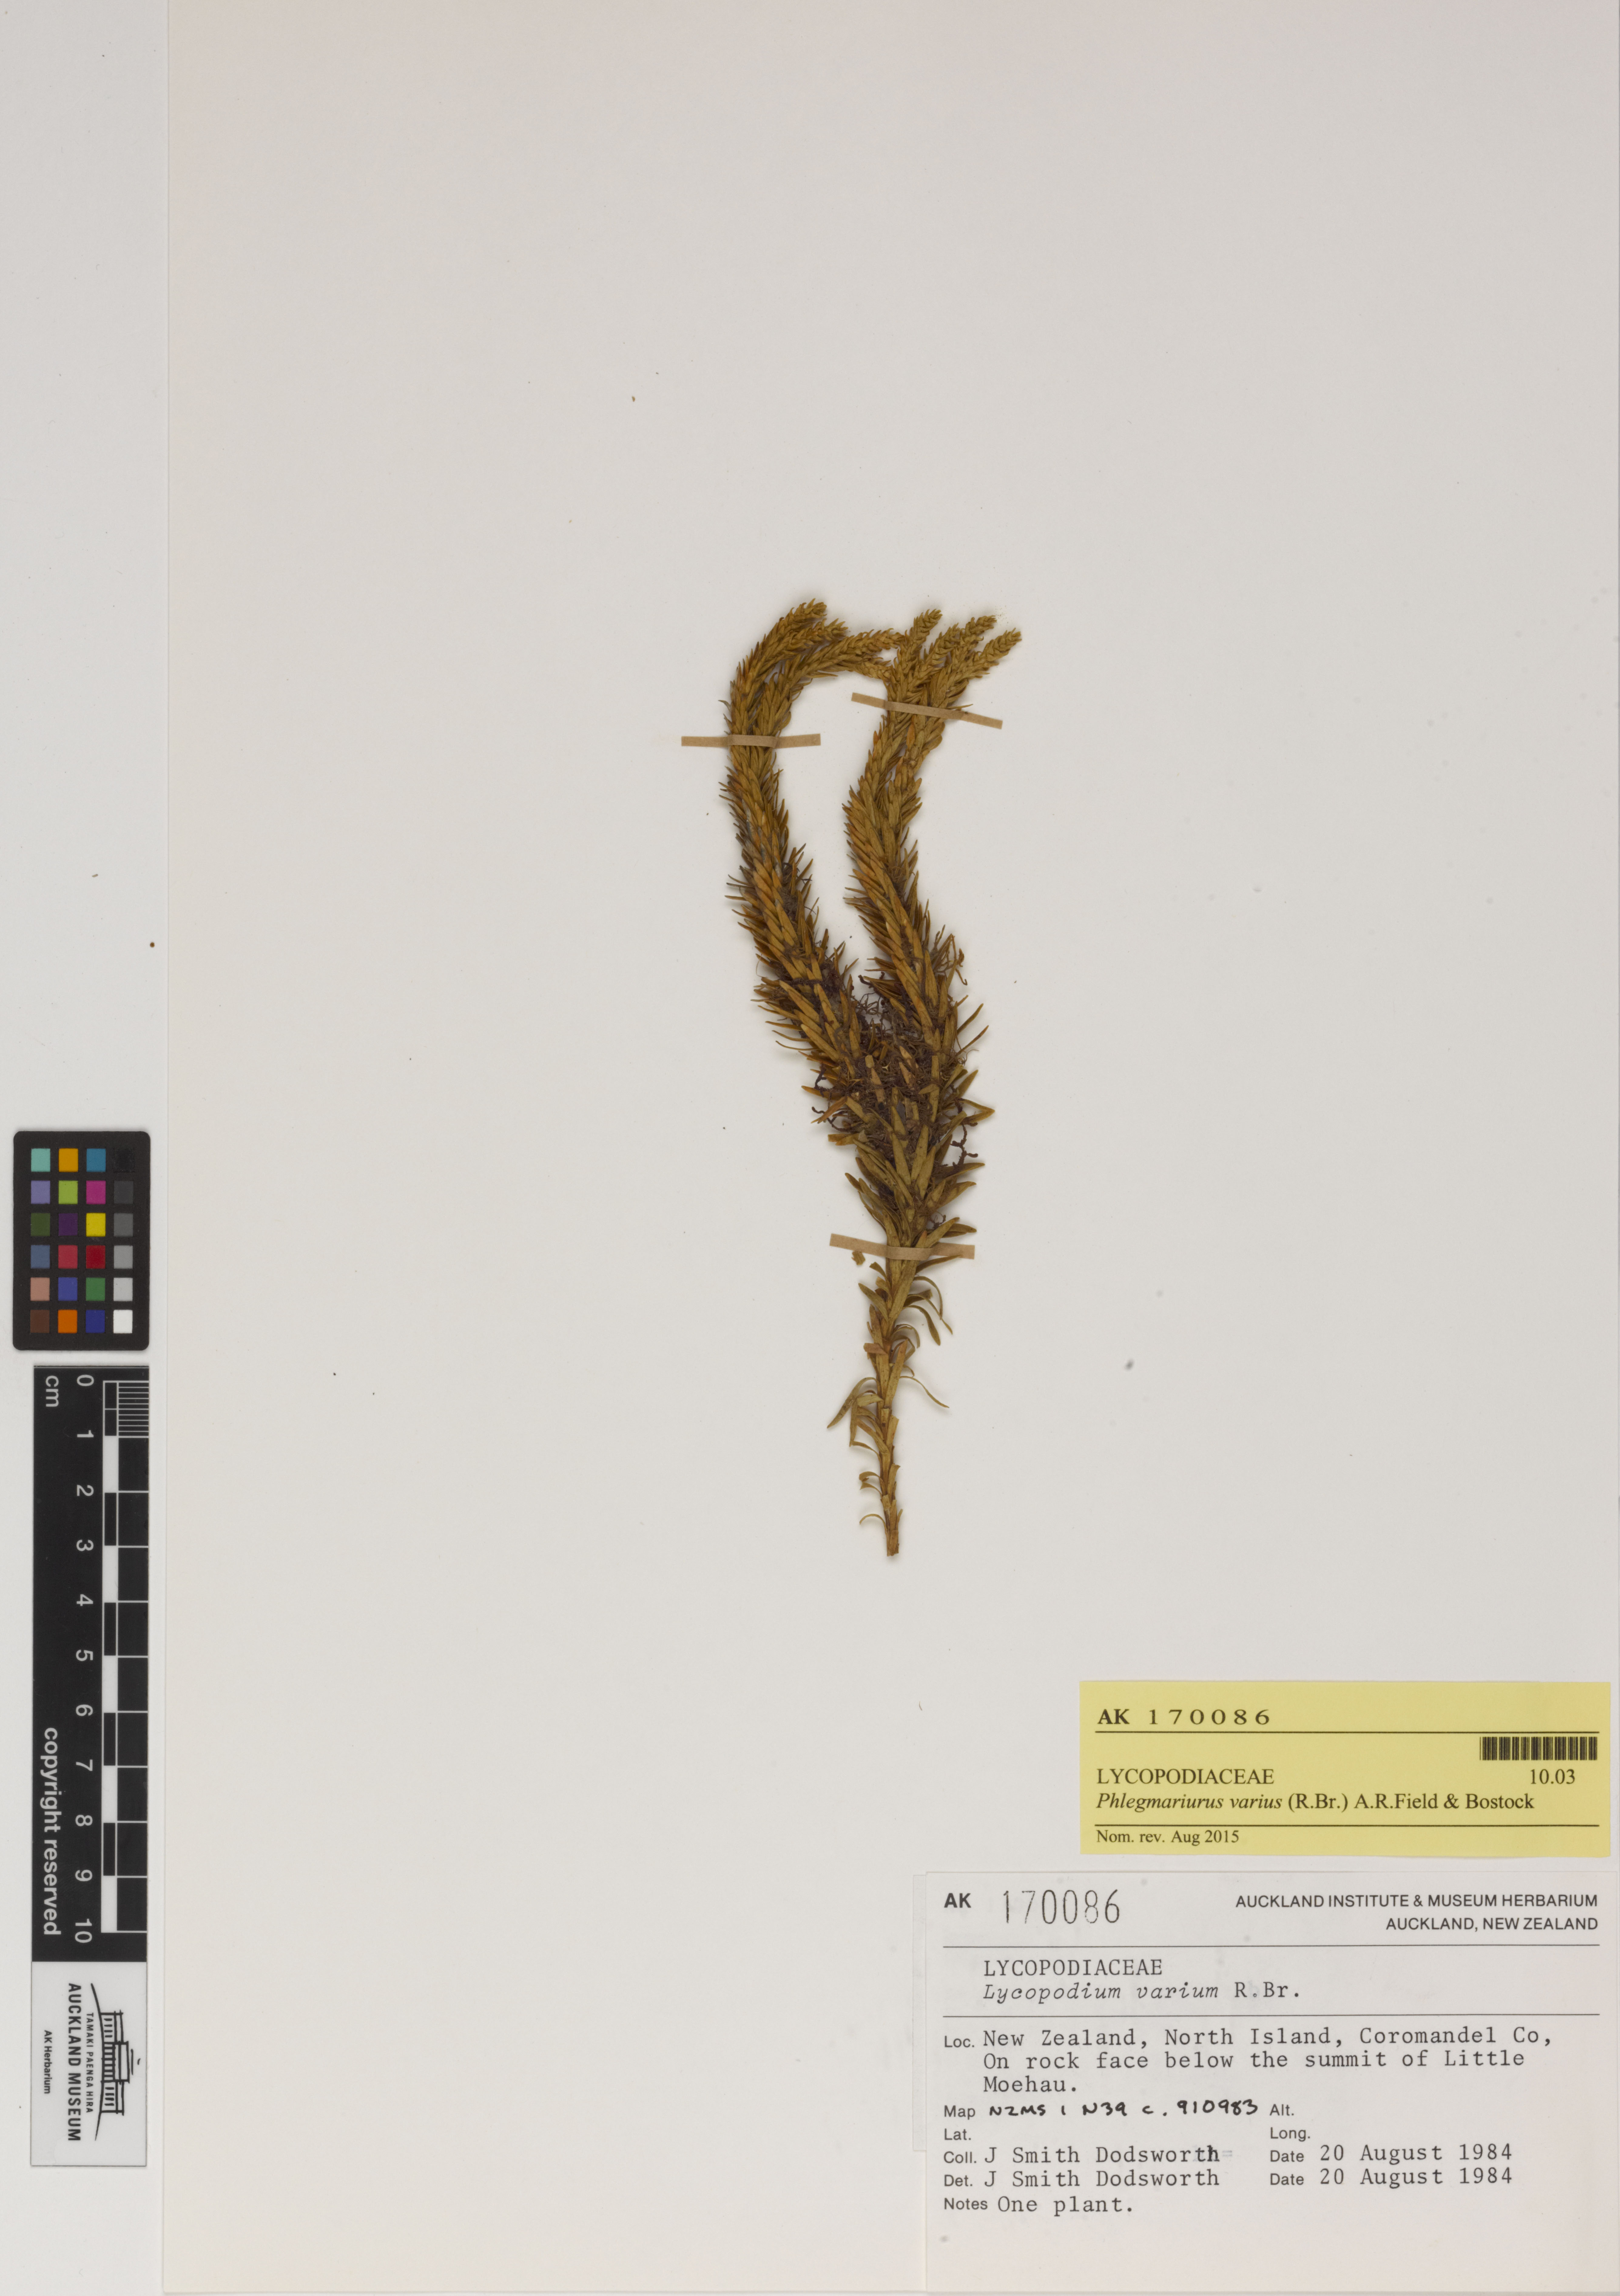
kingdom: Plantae
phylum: Tracheophyta
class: Lycopodiopsida
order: Lycopodiales
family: Lycopodiaceae
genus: Phlegmariurus
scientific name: Phlegmariurus varius
